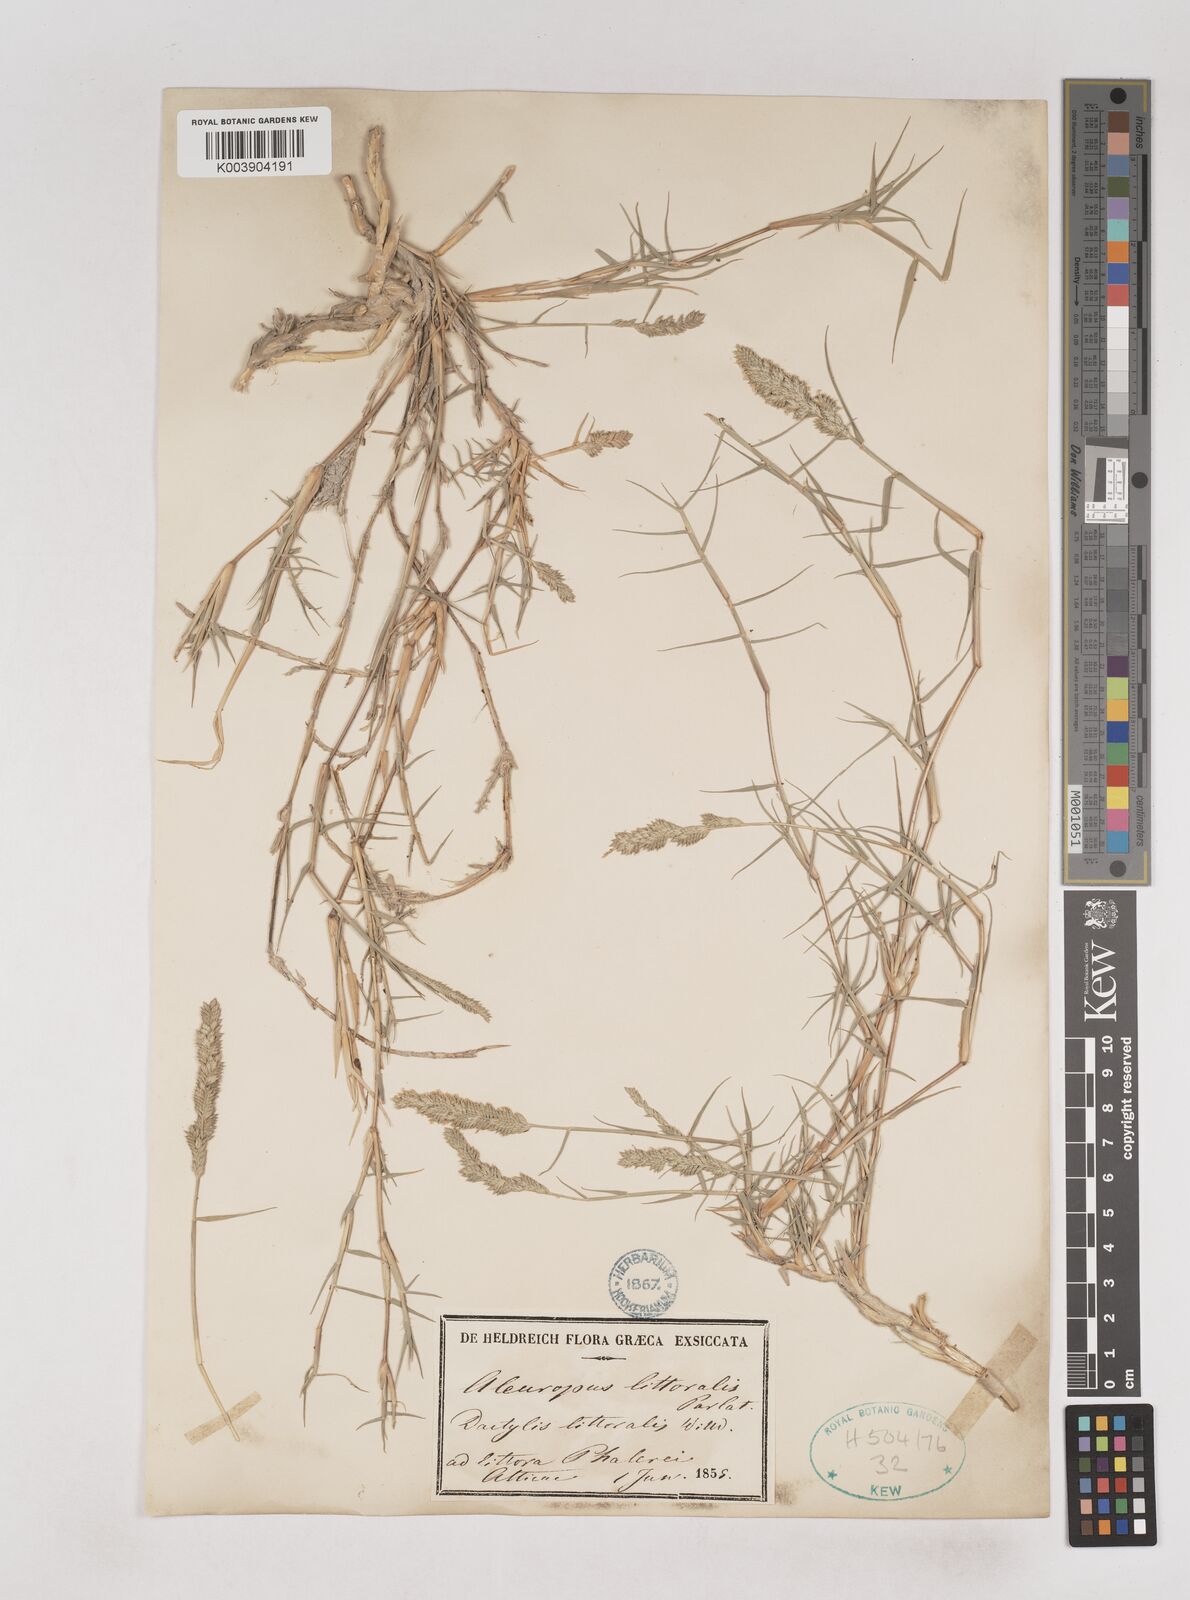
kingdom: Plantae
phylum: Tracheophyta
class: Liliopsida
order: Poales
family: Poaceae
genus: Aeluropus
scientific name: Aeluropus littoralis
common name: Indian walnut
